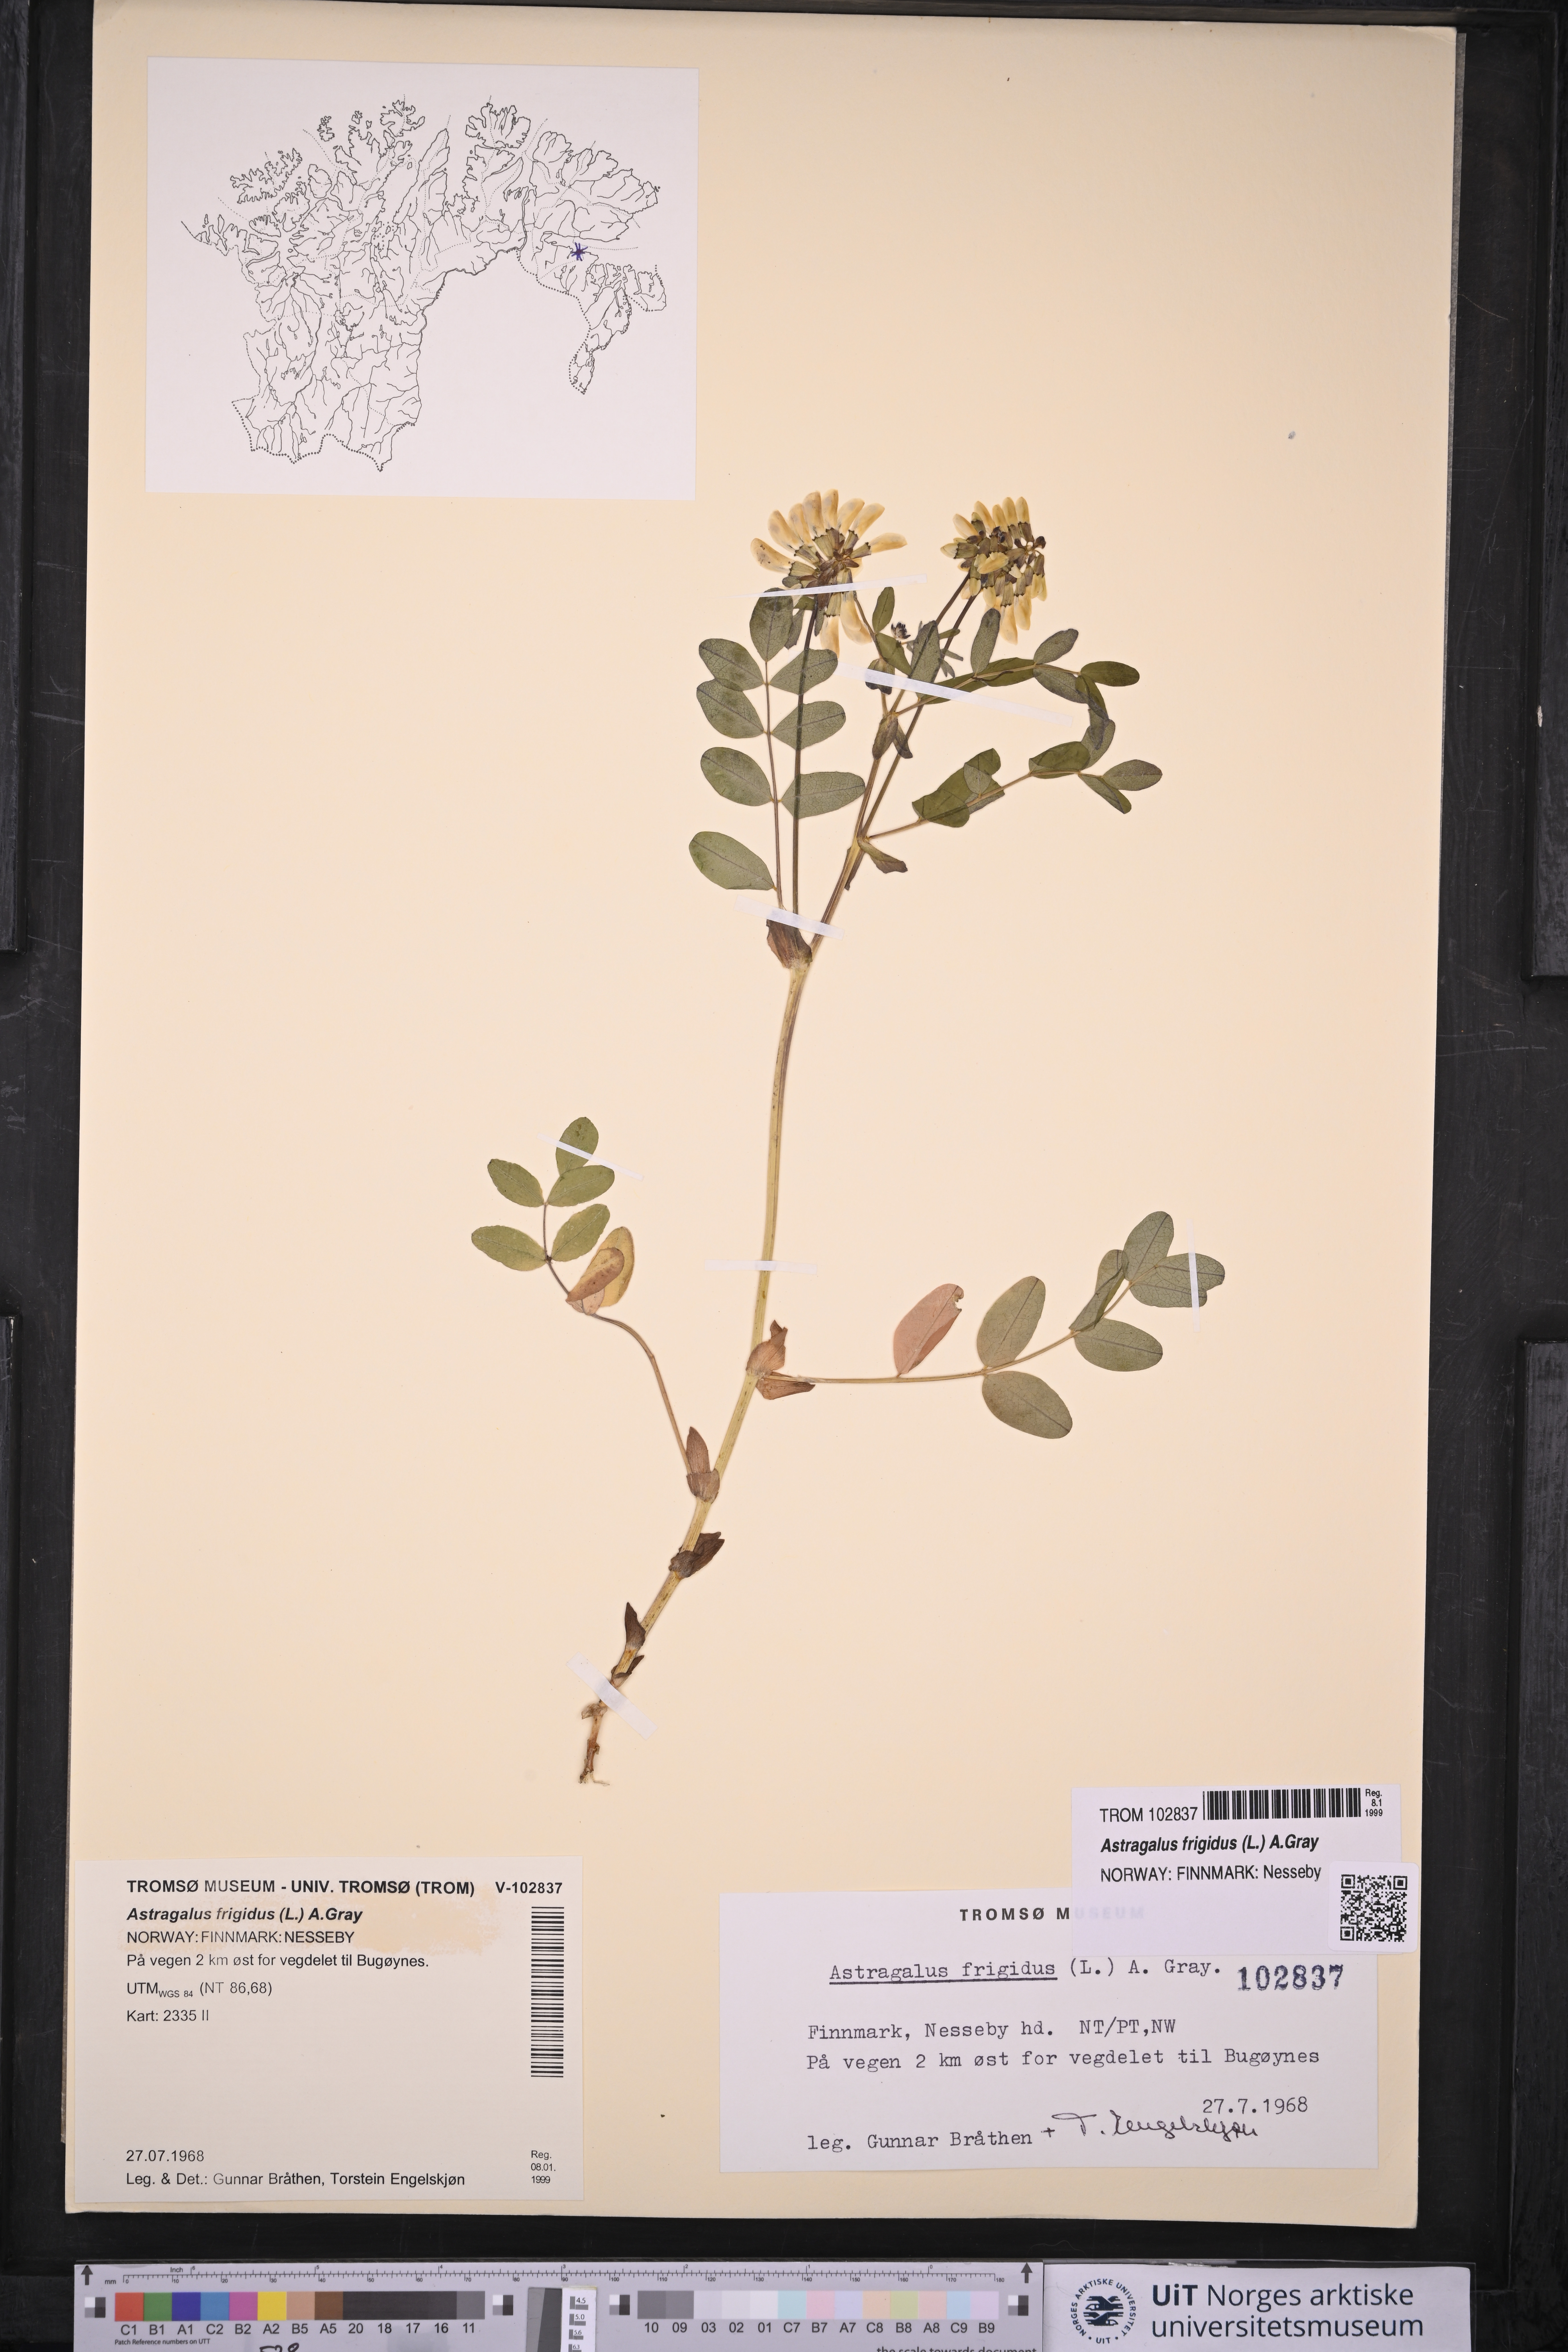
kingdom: Plantae
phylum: Tracheophyta
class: Magnoliopsida
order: Fabales
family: Fabaceae
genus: Astragalus
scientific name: Astragalus frigidus
